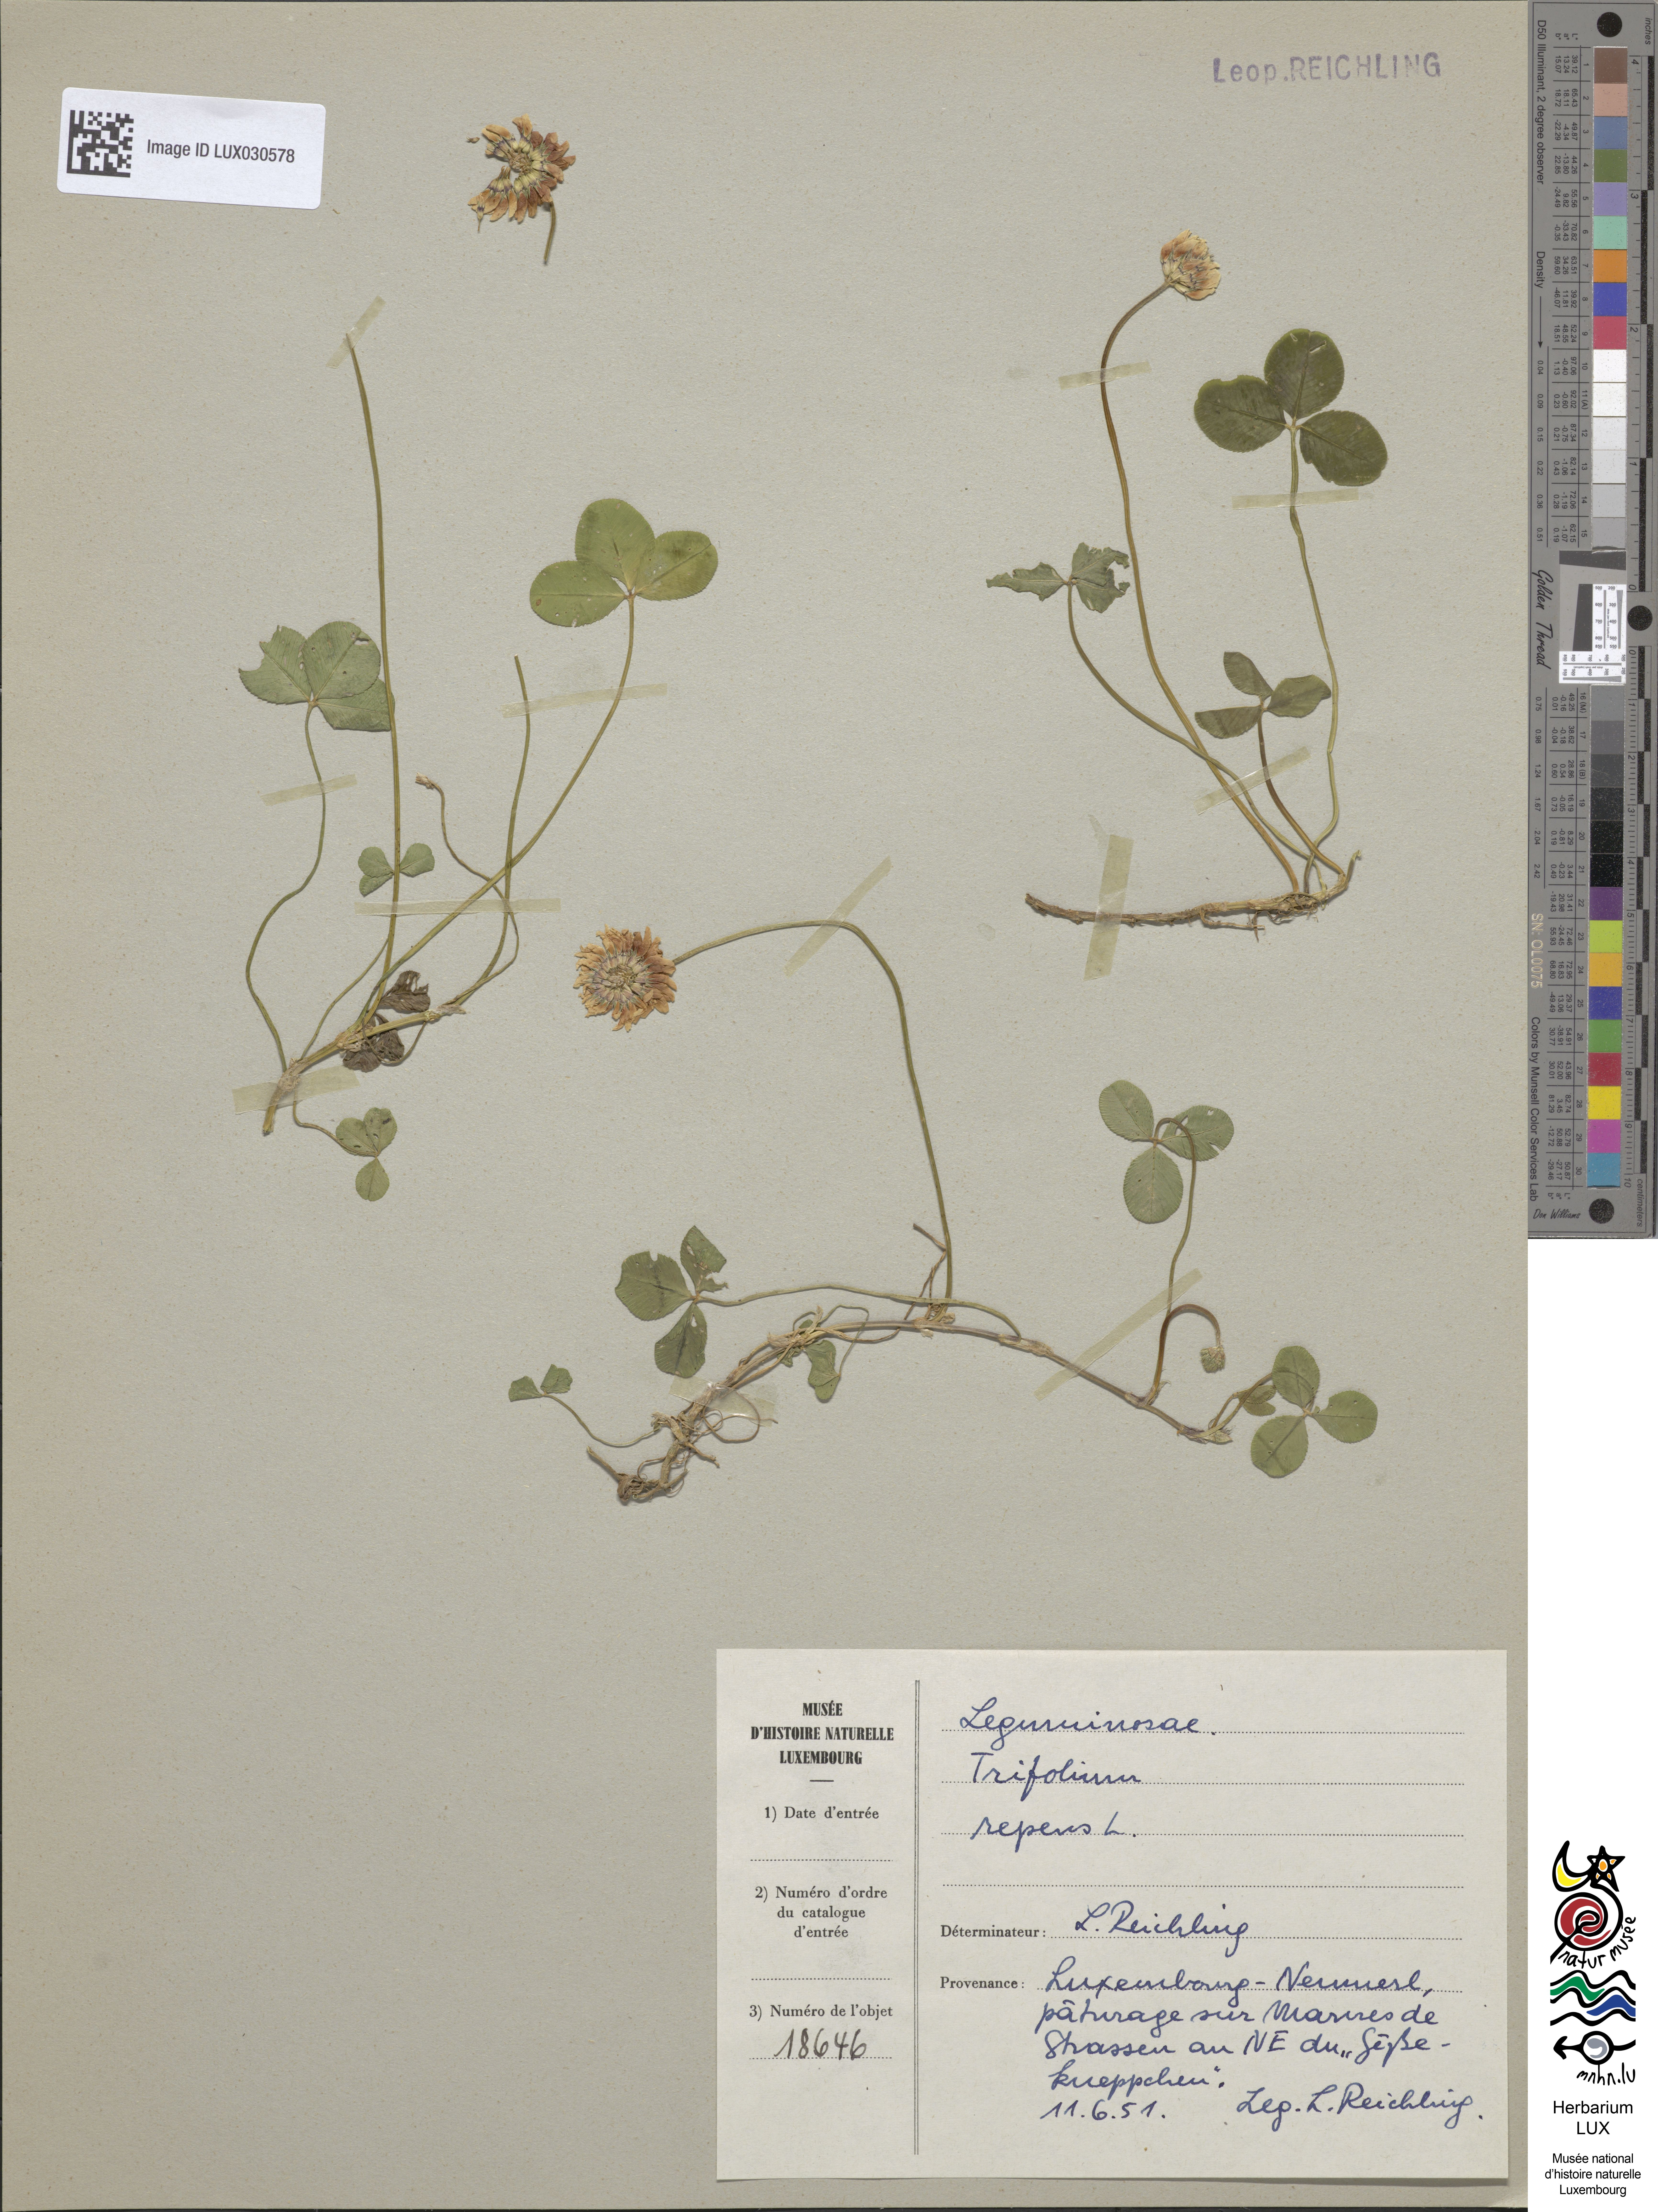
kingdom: Plantae
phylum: Tracheophyta
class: Magnoliopsida
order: Fabales
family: Fabaceae
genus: Trifolium
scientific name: Trifolium repens
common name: White clover
